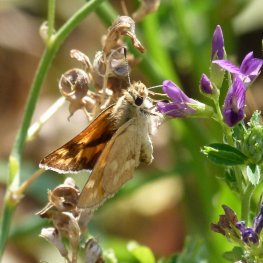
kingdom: Animalia
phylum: Arthropoda
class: Insecta
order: Lepidoptera
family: Hesperiidae
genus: Ochlodes
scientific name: Ochlodes sylvanoides
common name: Woodland Skipper
